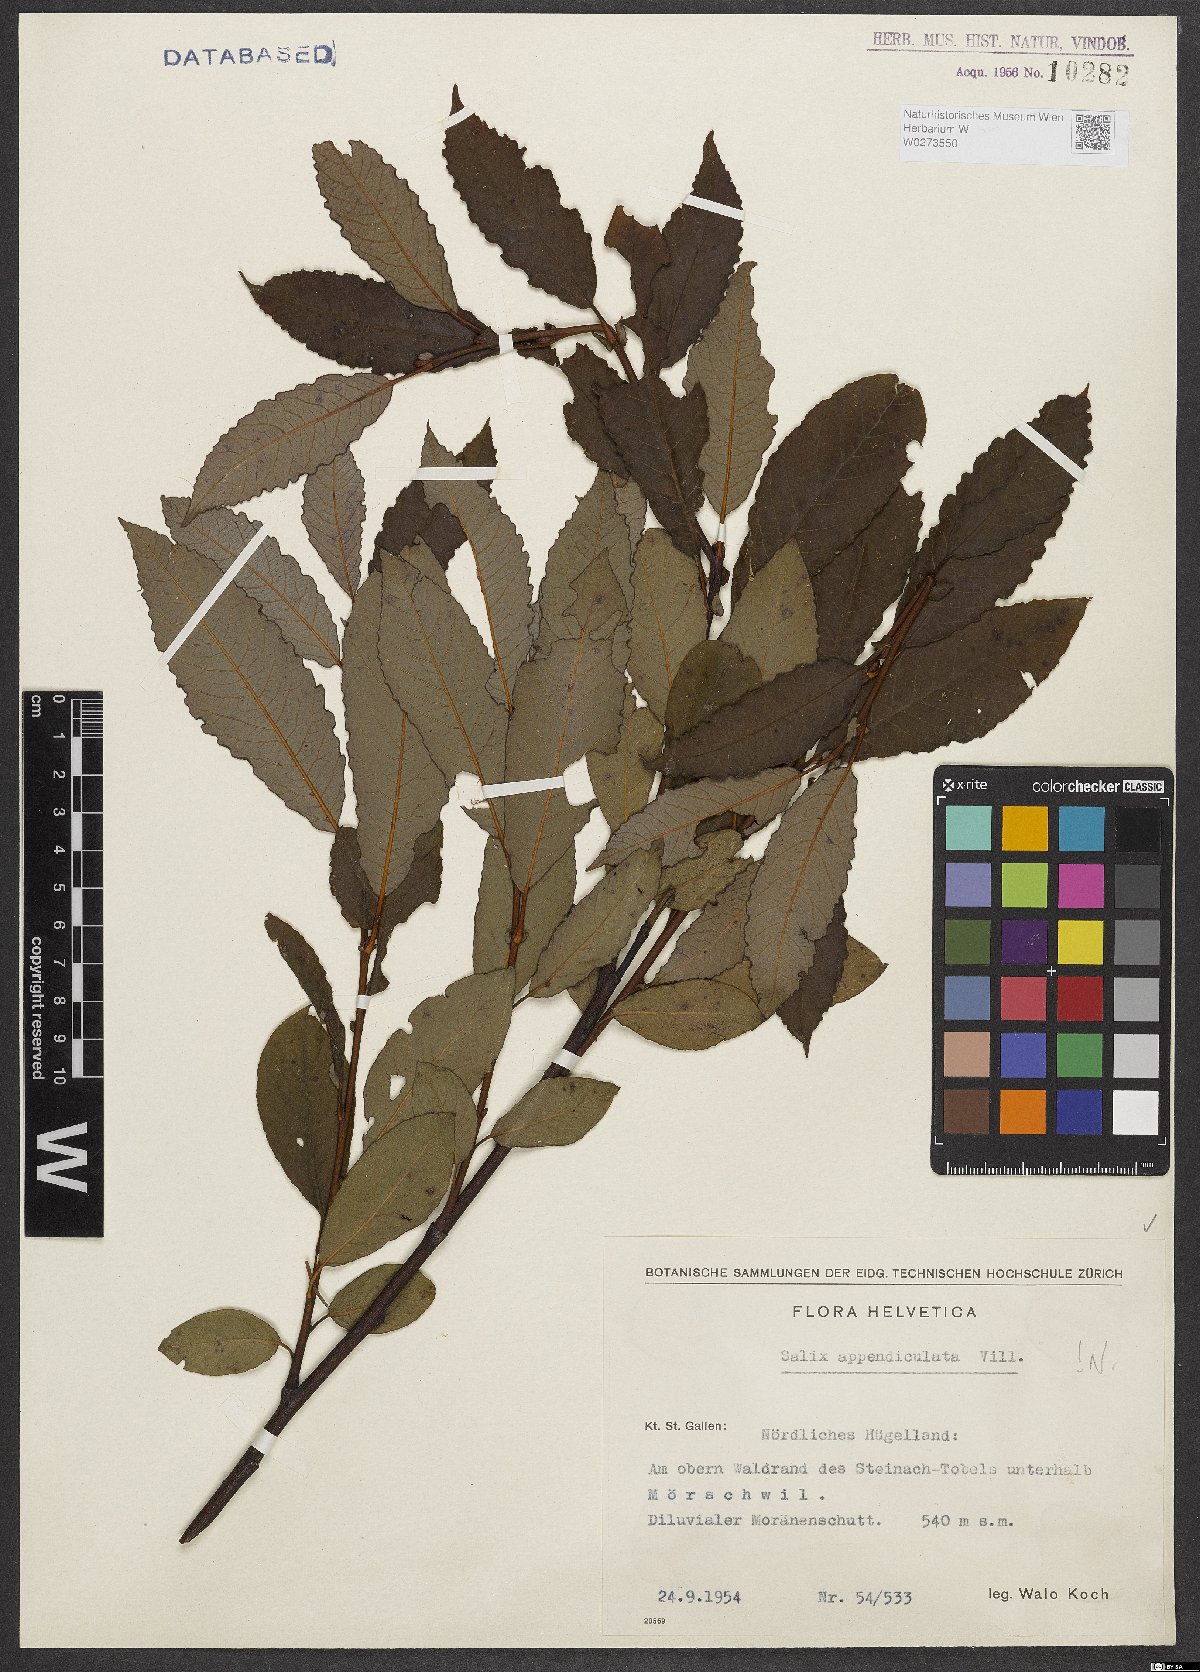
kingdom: Plantae
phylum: Tracheophyta
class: Magnoliopsida
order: Malpighiales
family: Salicaceae
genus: Salix
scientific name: Salix appendiculata
